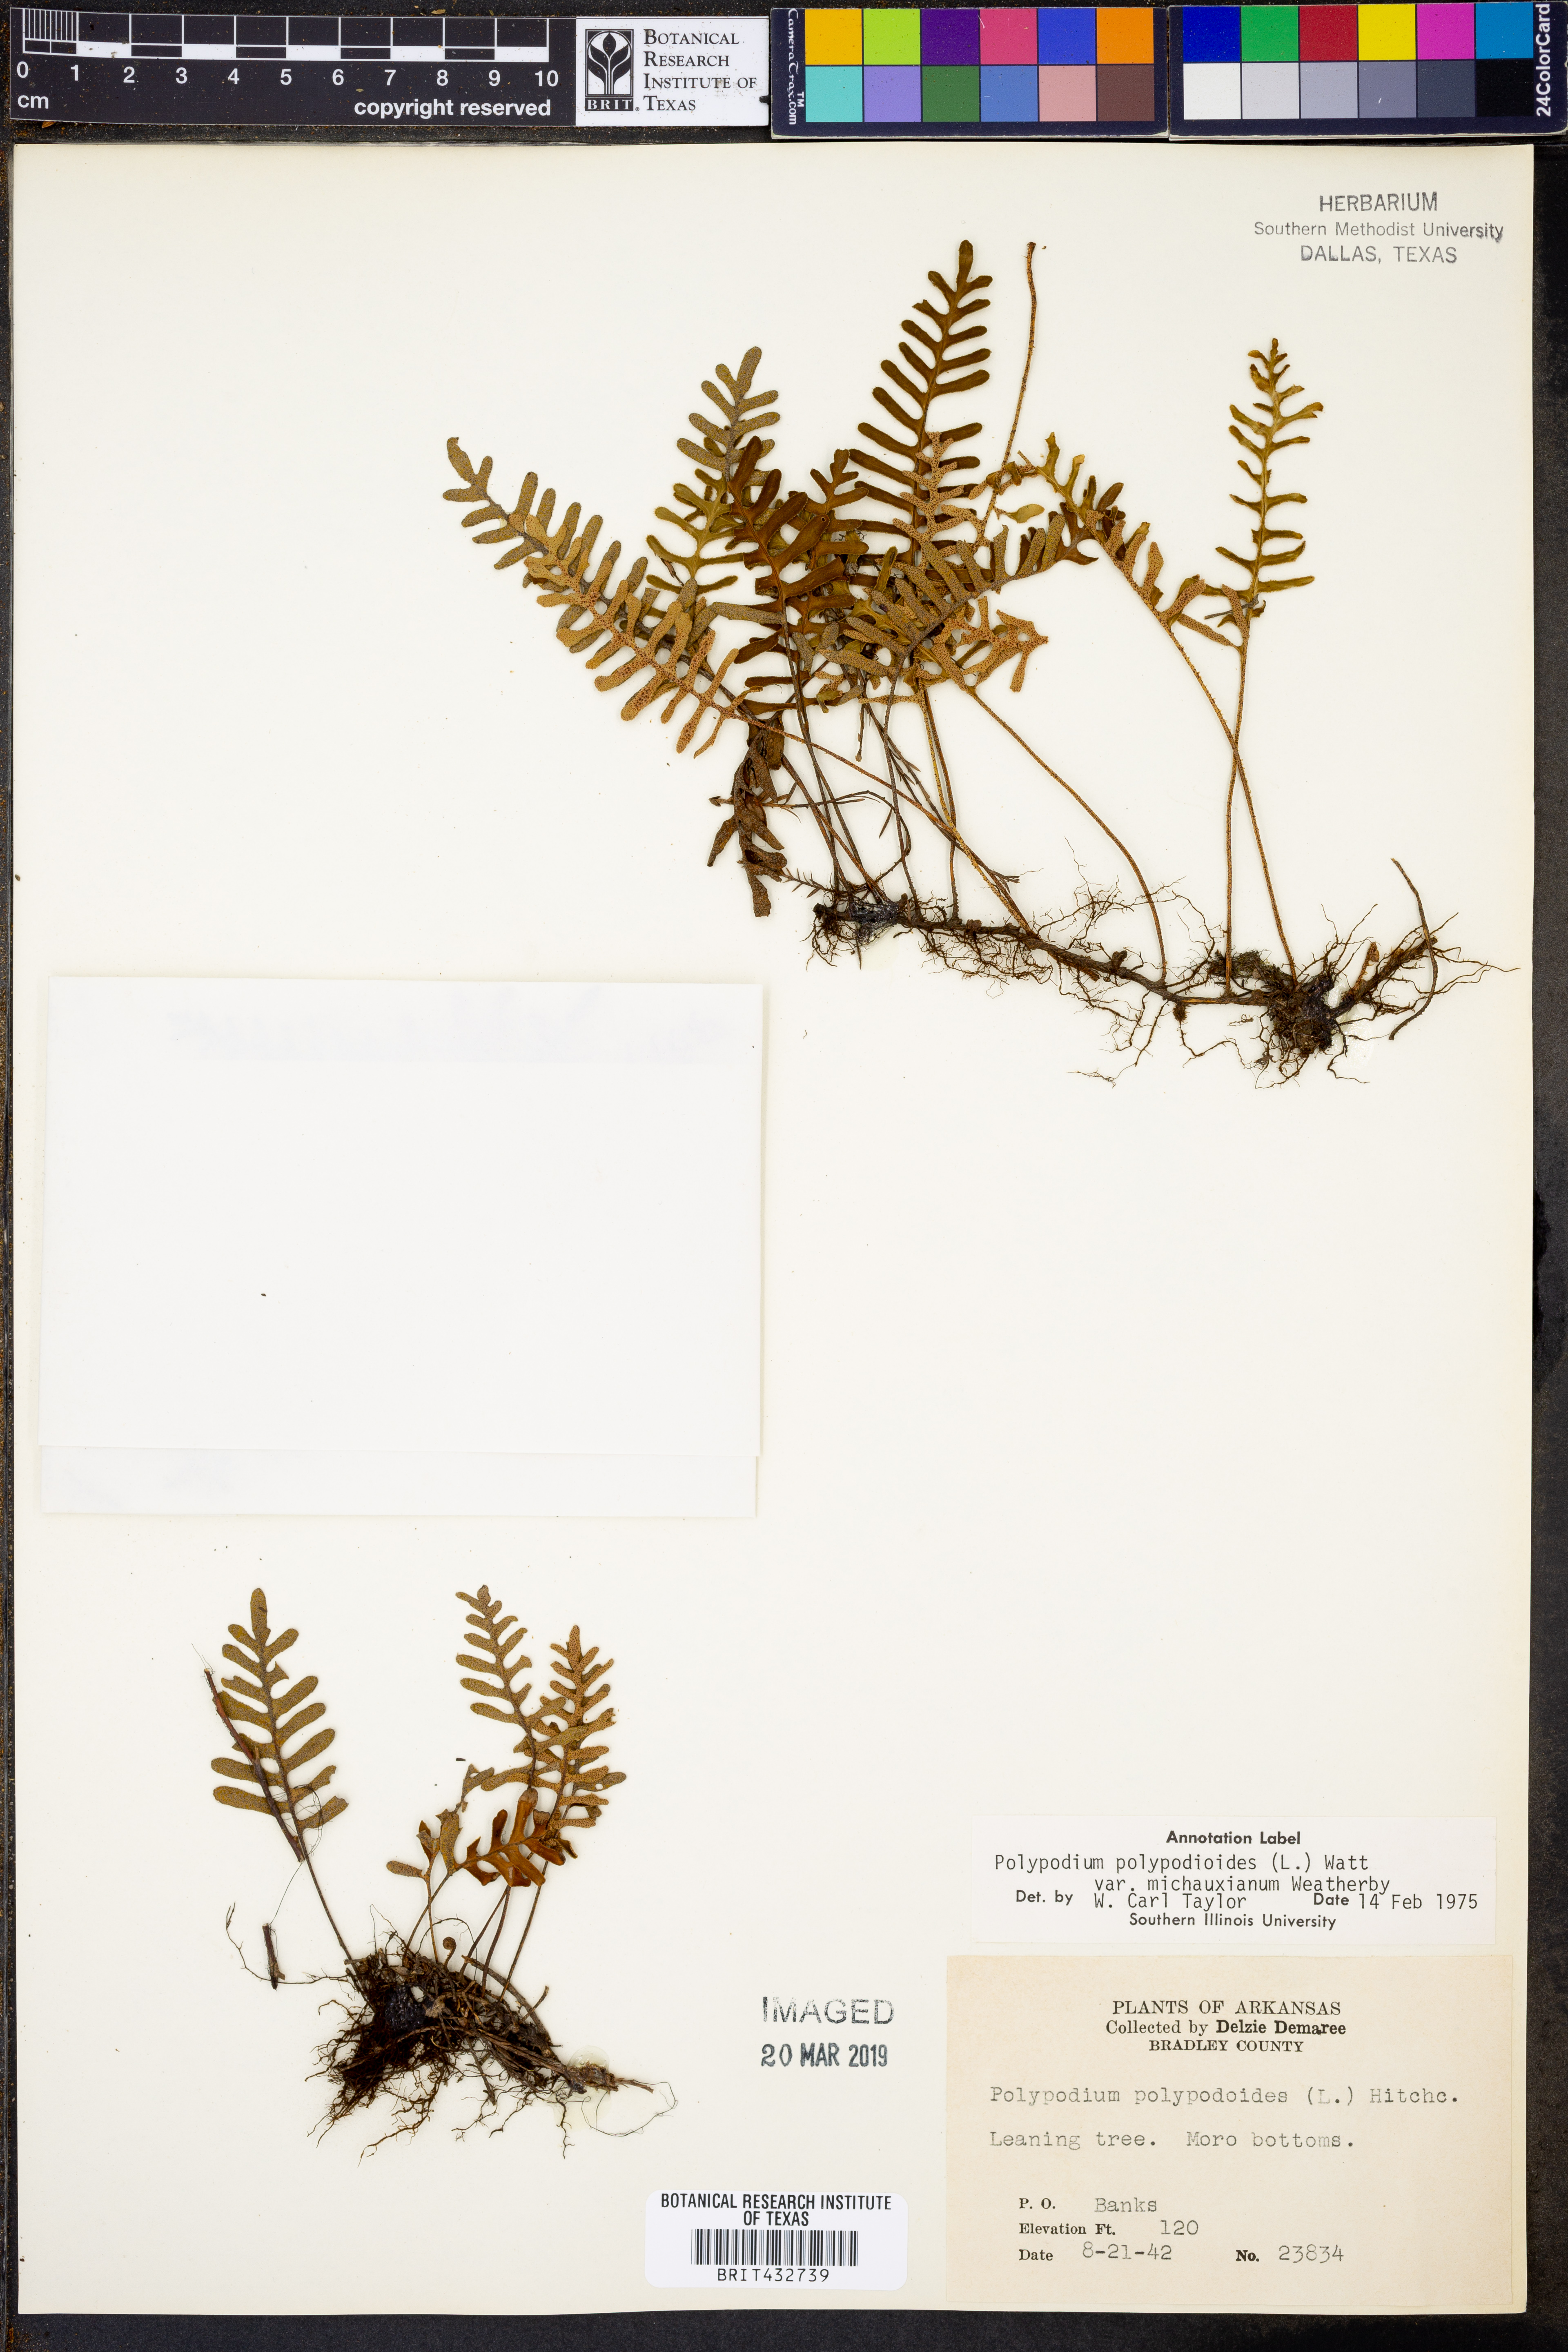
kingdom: Plantae
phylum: Tracheophyta
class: Polypodiopsida
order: Polypodiales
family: Polypodiaceae
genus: Pleopeltis
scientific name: Pleopeltis michauxiana
